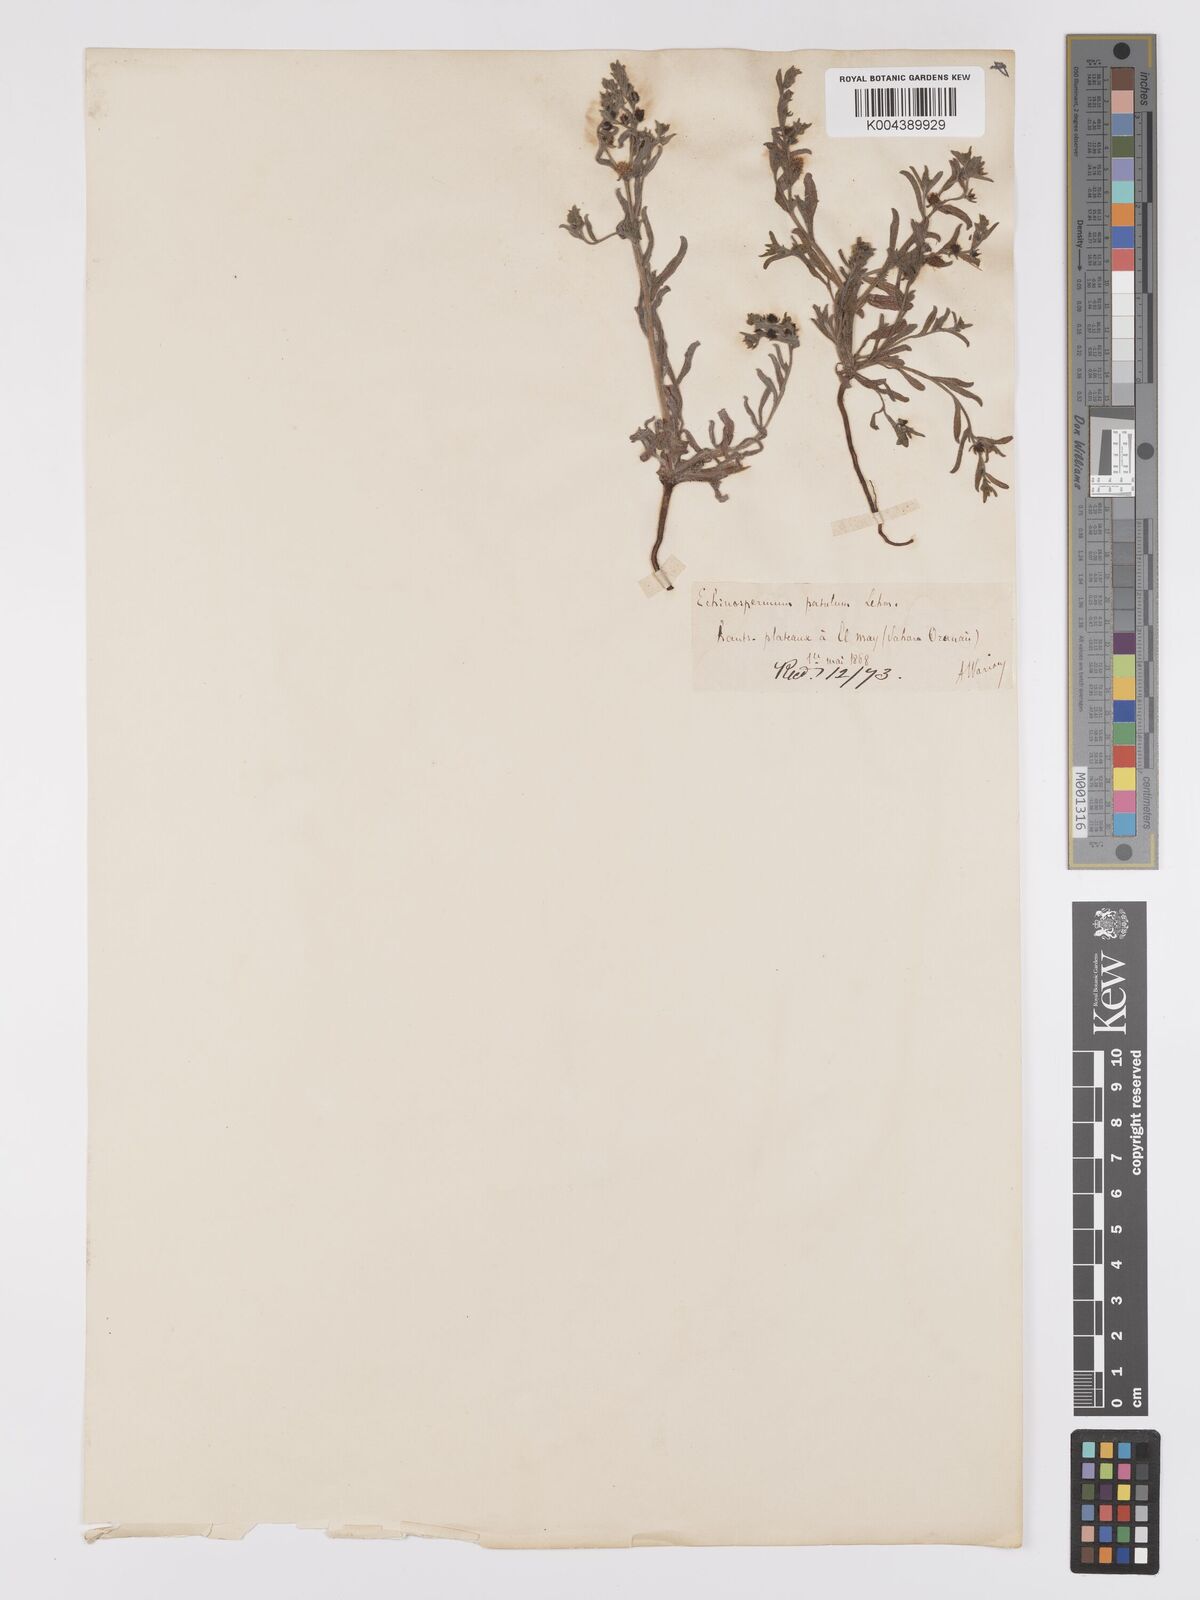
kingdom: Plantae
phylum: Tracheophyta
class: Magnoliopsida
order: Boraginales
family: Boraginaceae
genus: Lappula
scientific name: Lappula patula
